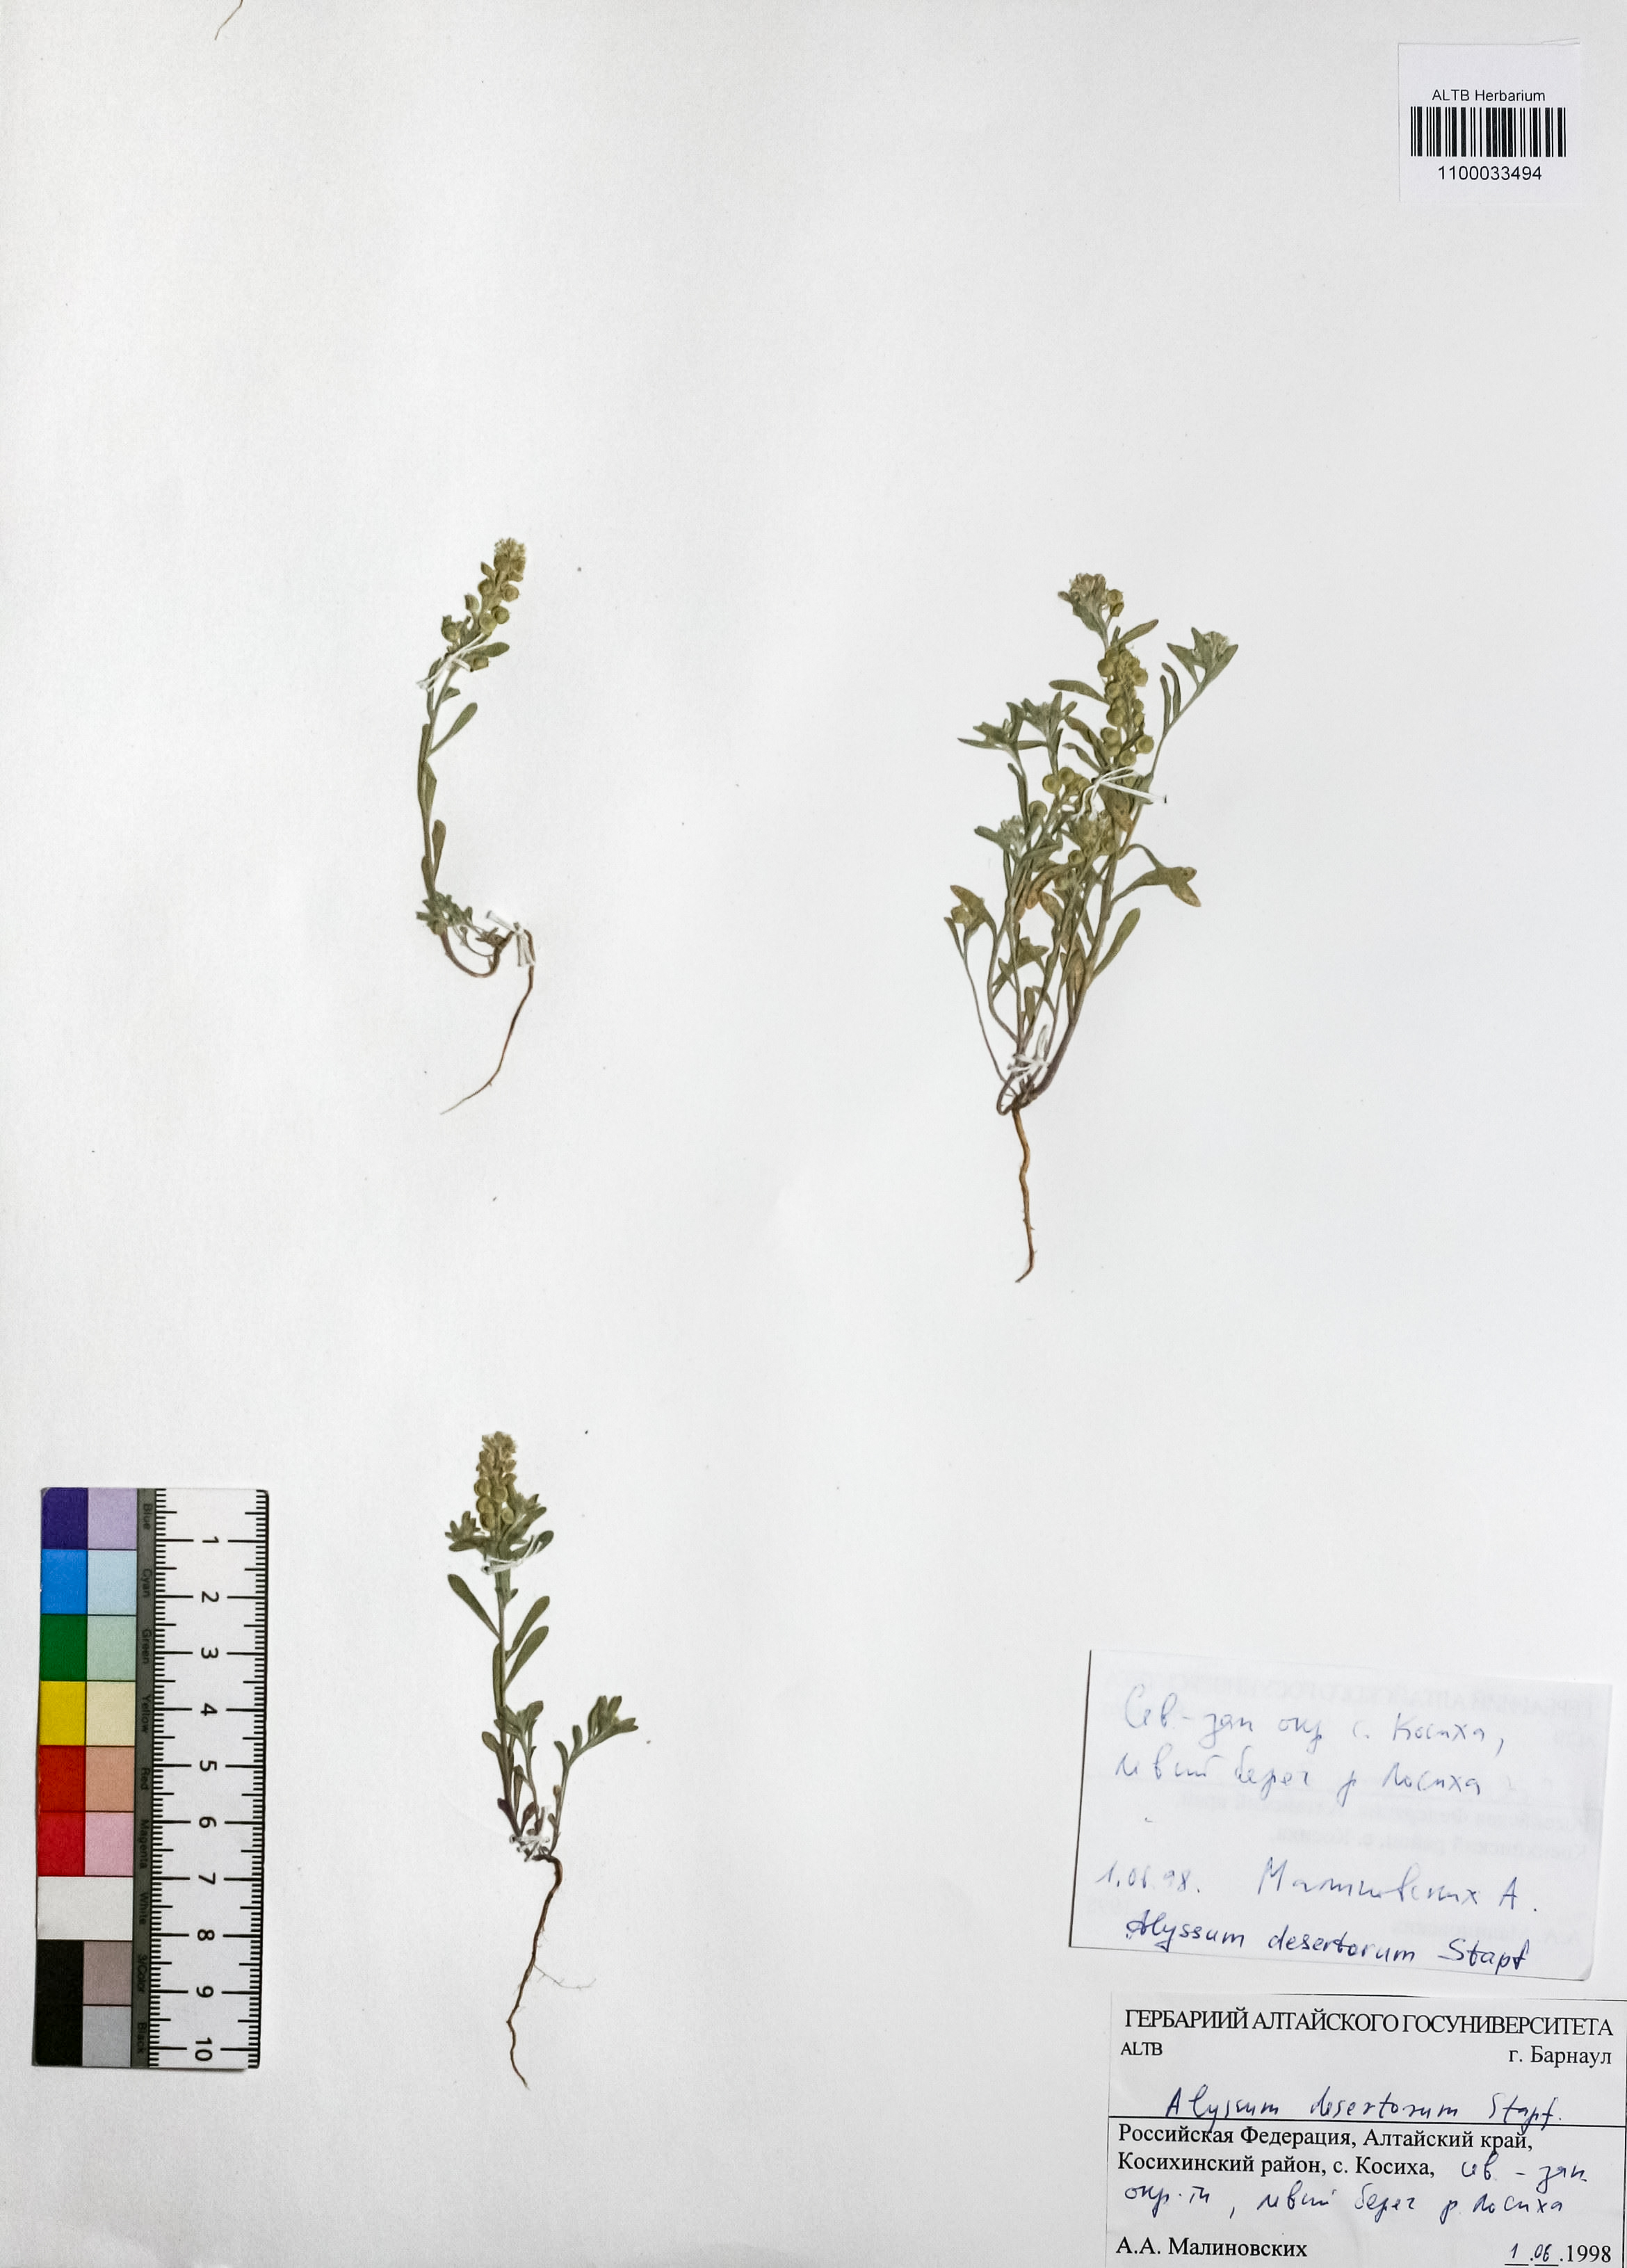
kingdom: Plantae
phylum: Tracheophyta
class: Magnoliopsida
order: Brassicales
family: Brassicaceae
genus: Alyssum
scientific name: Alyssum turkestanicum
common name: Desert alyssum
